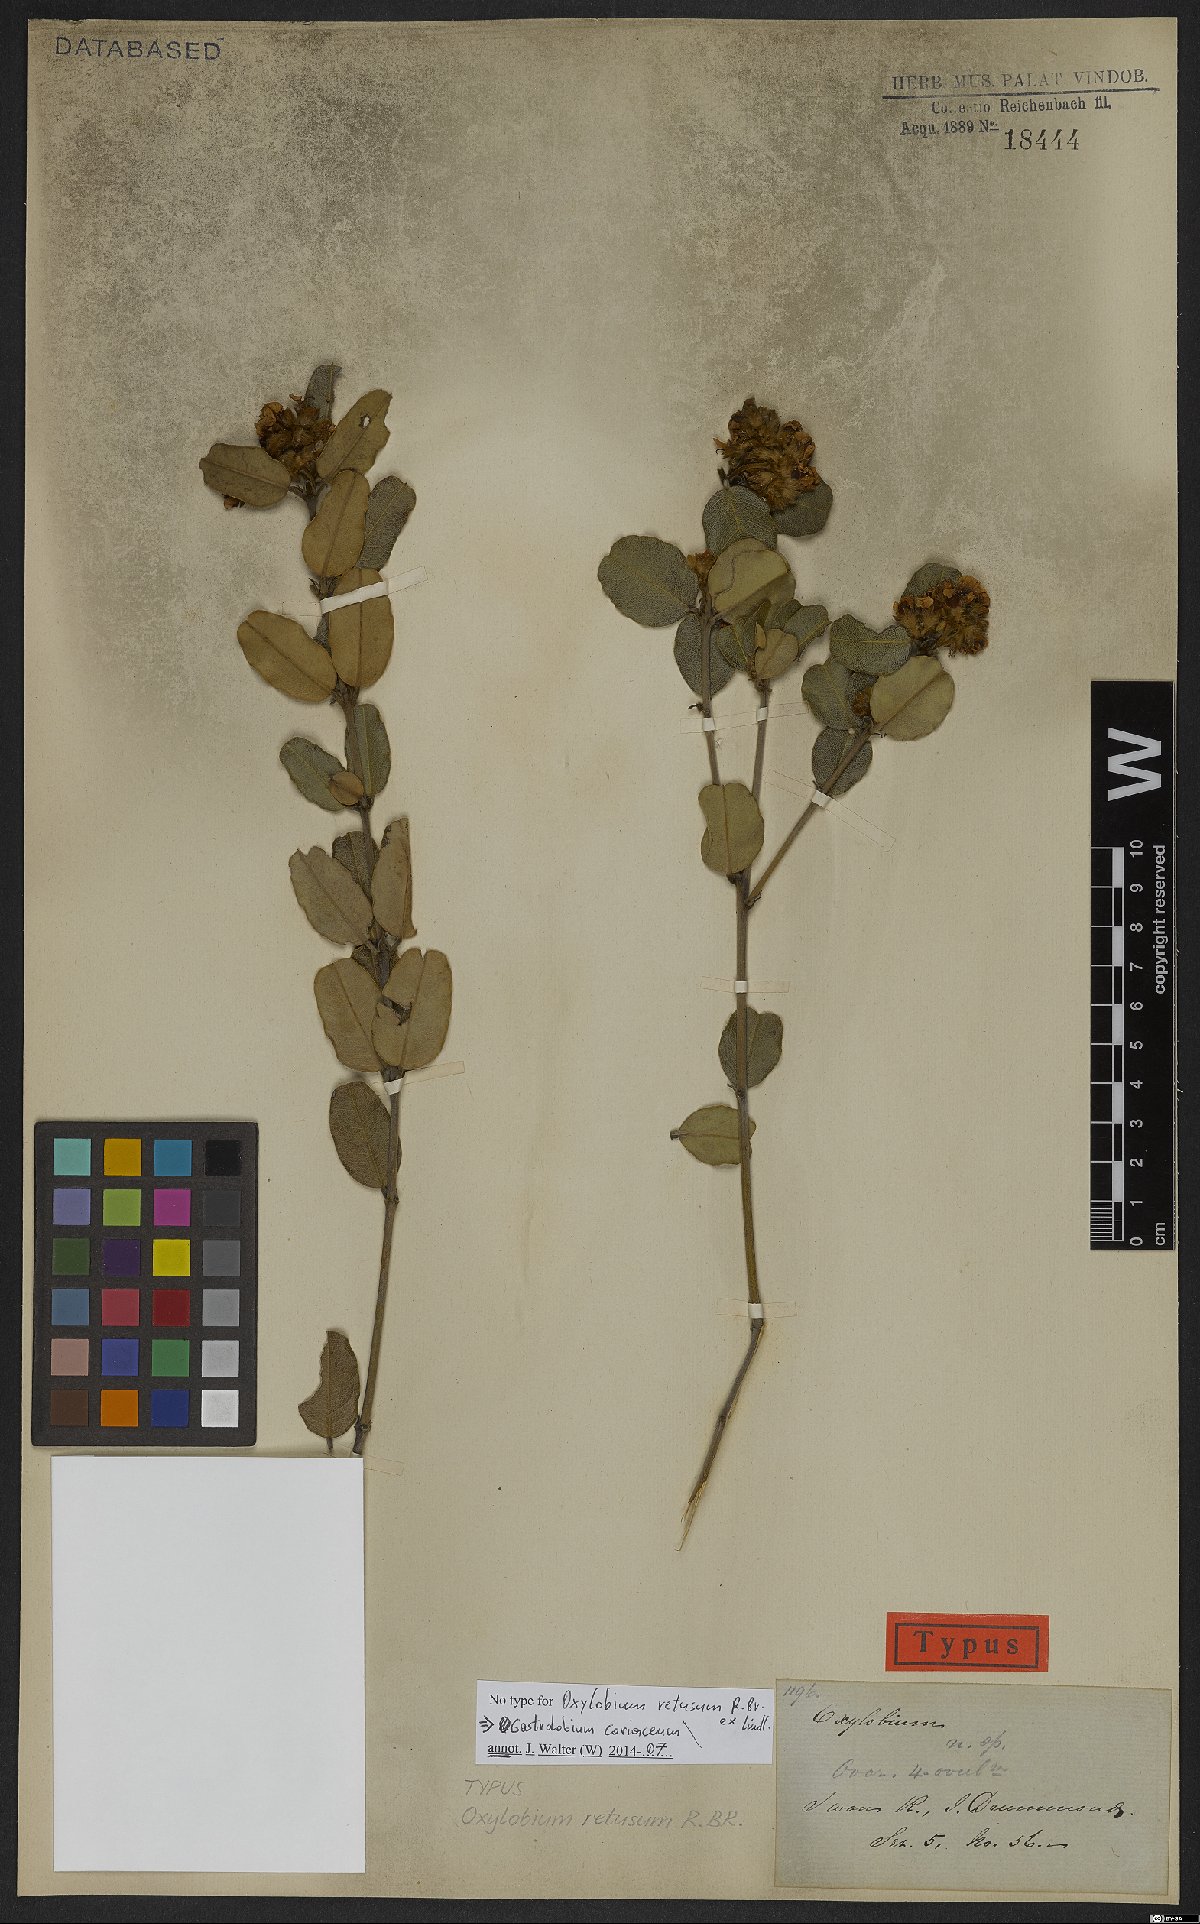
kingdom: Plantae
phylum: Tracheophyta
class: Magnoliopsida
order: Fabales
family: Fabaceae
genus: Gastrolobium
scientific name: Gastrolobium coriaceum
